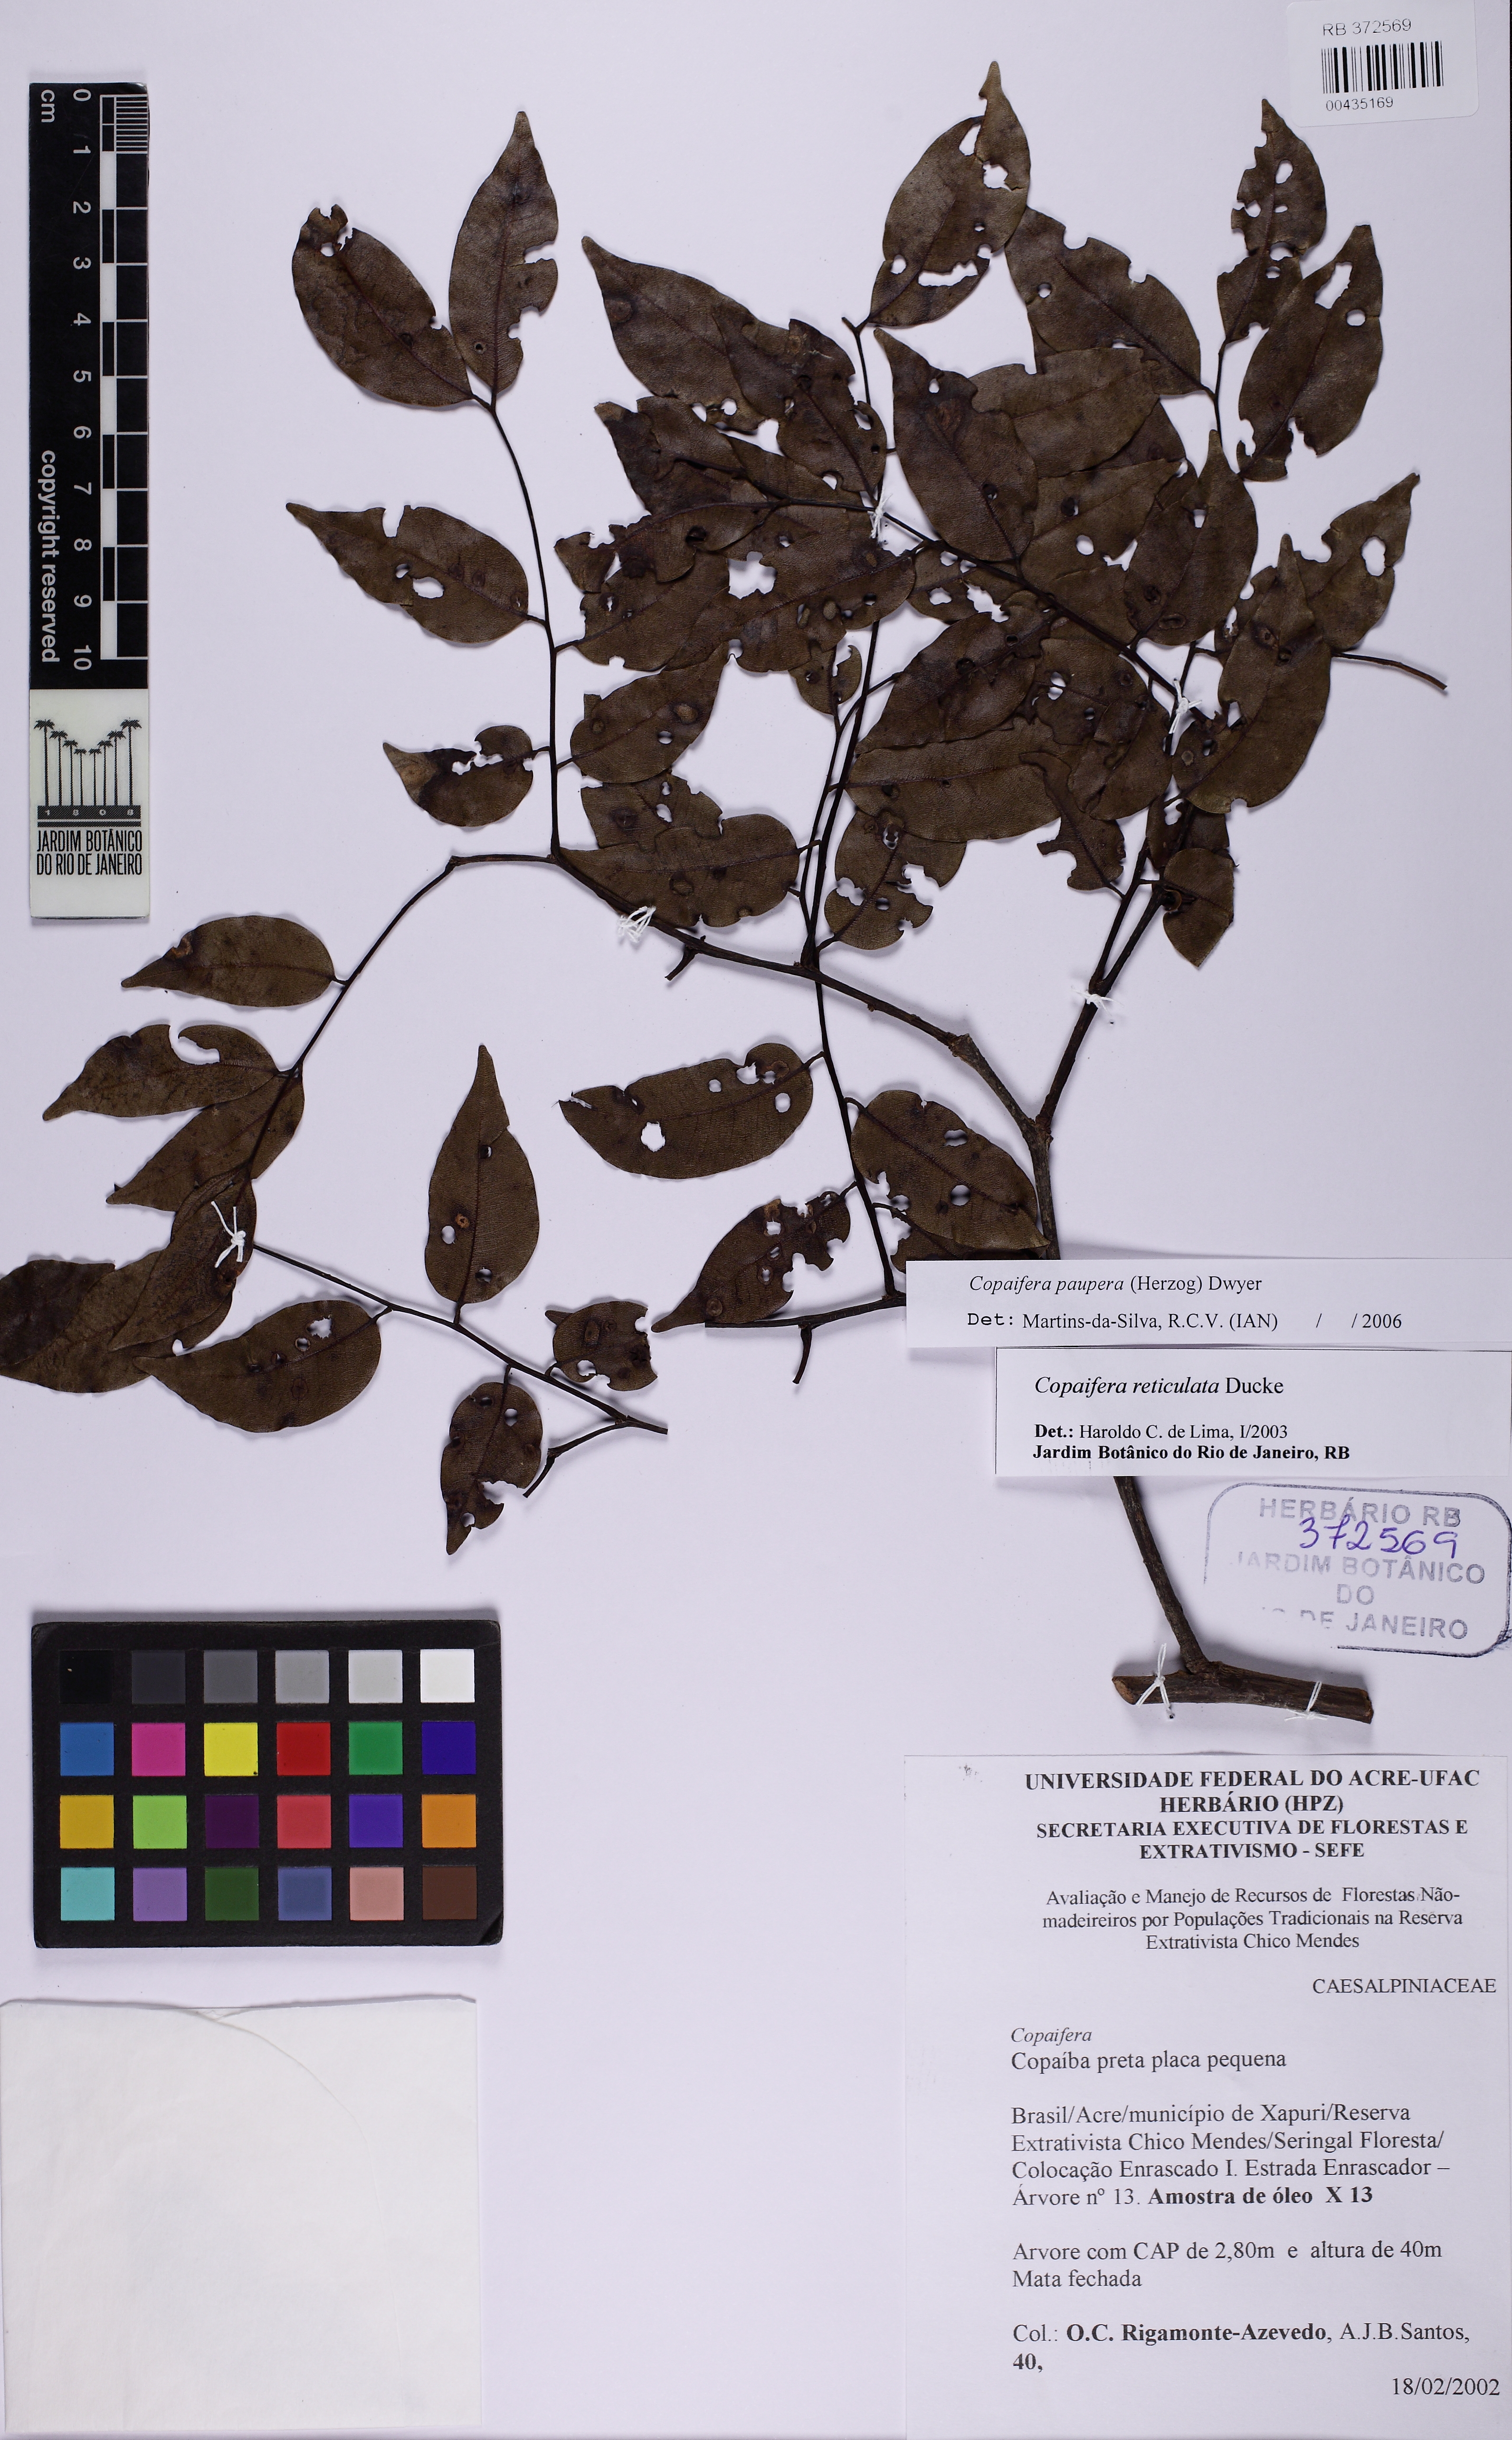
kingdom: Plantae
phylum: Tracheophyta
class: Magnoliopsida
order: Fabales
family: Fabaceae
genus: Copaifera
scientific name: Copaifera paupera
